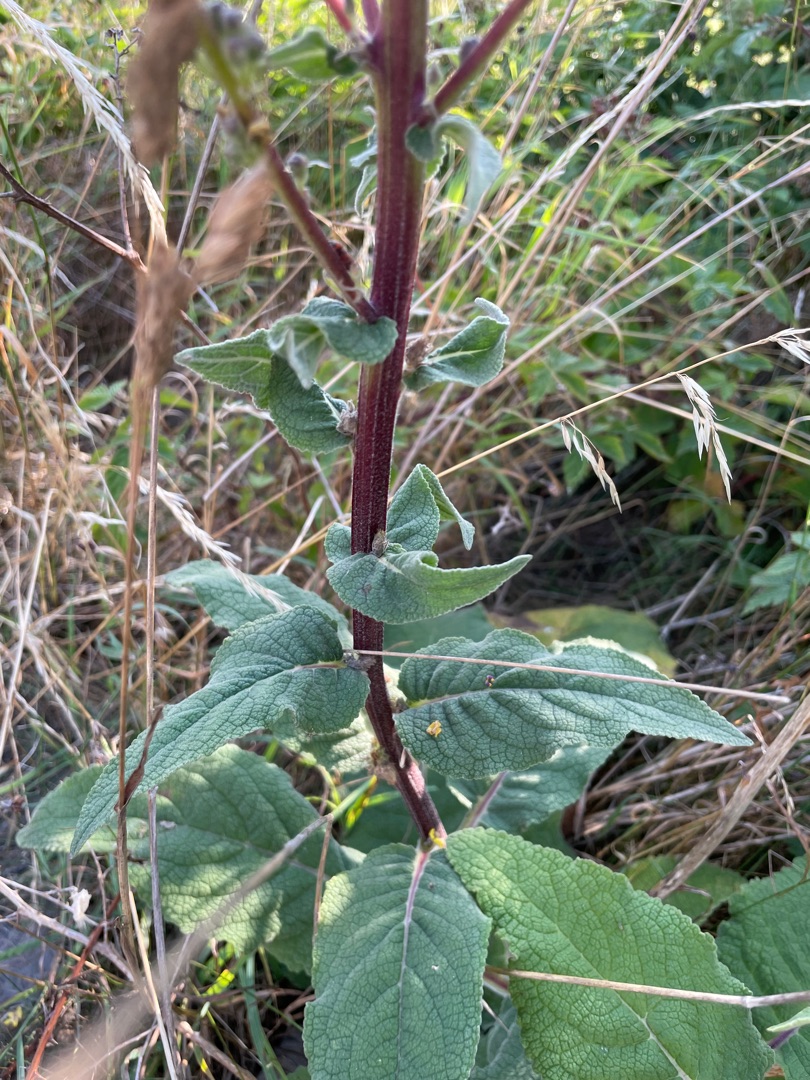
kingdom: Plantae
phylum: Tracheophyta
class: Magnoliopsida
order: Lamiales
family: Scrophulariaceae
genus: Verbascum
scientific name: Verbascum nigrum
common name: Mørk kongelys
